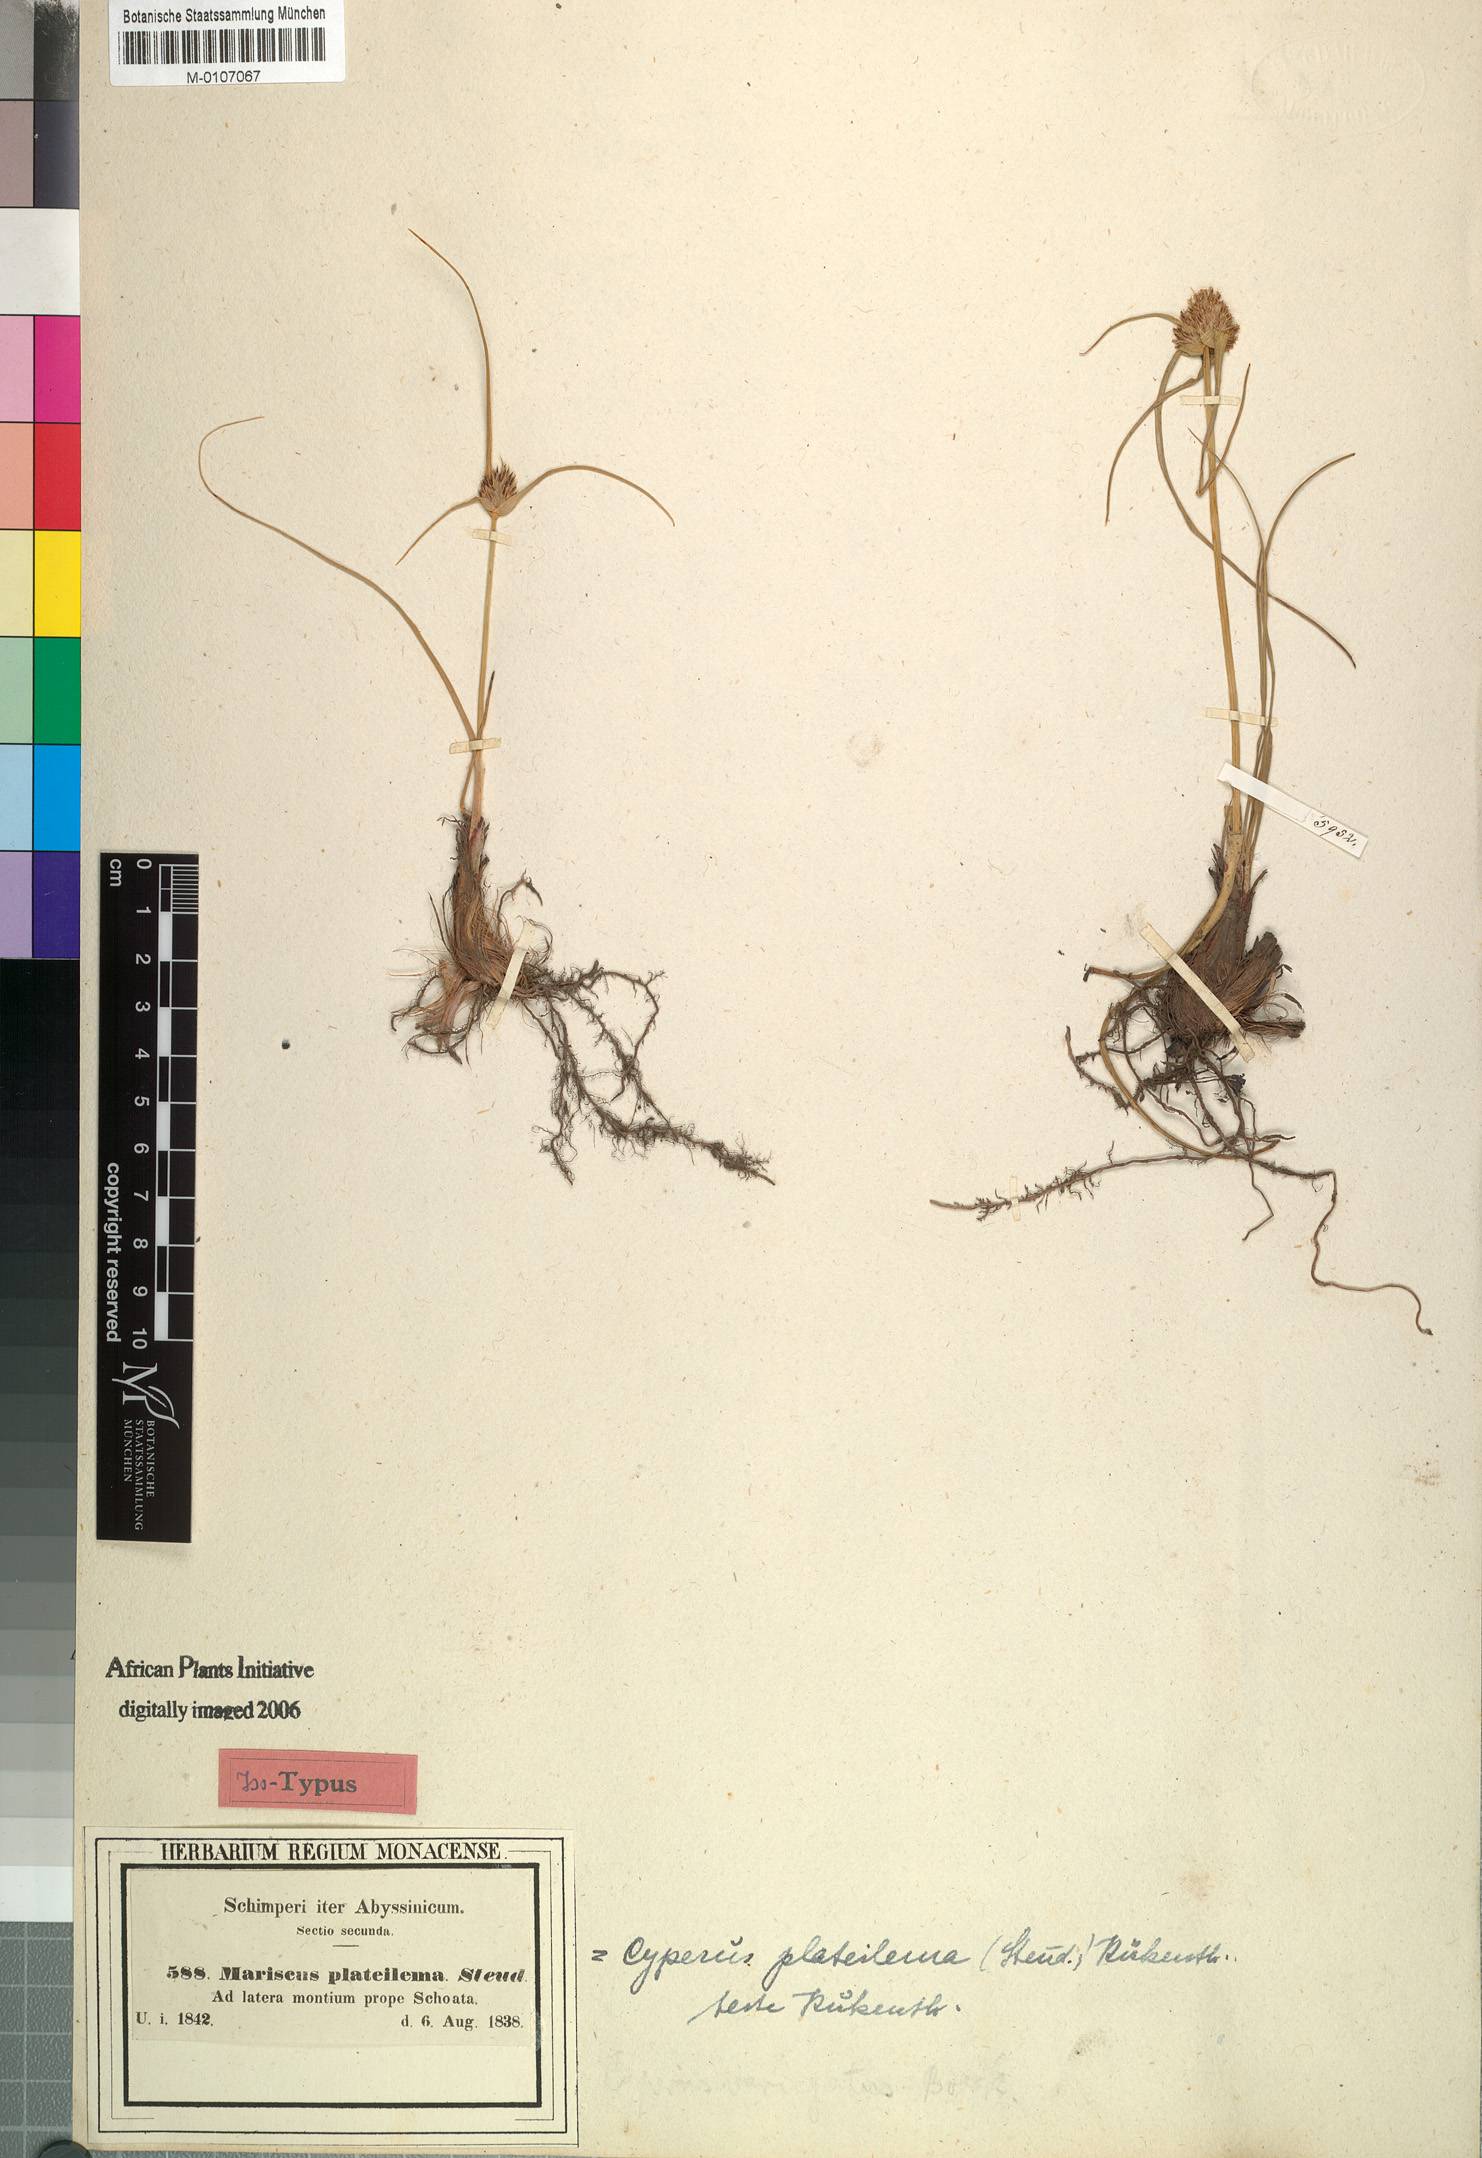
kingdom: Plantae
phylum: Tracheophyta
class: Liliopsida
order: Poales
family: Cyperaceae
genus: Cyperus
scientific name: Cyperus plateilema
